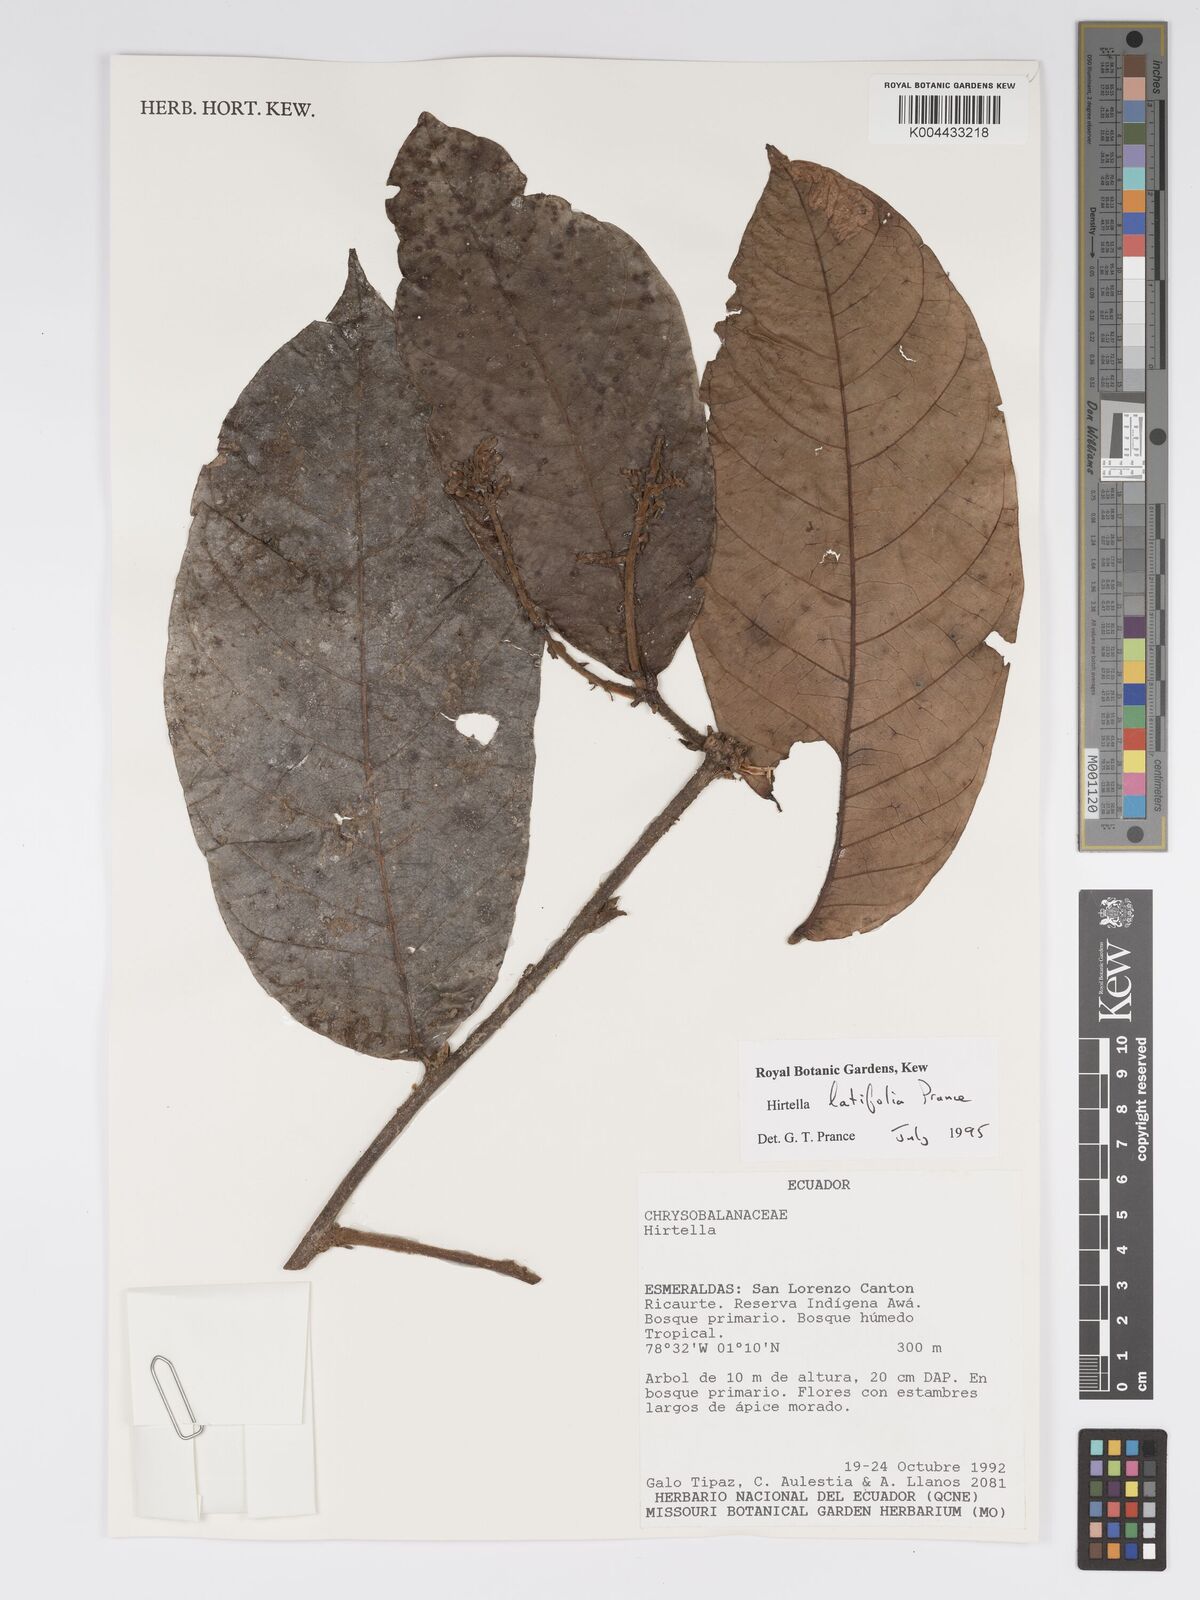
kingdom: Plantae
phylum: Tracheophyta
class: Magnoliopsida
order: Malpighiales
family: Chrysobalanaceae
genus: Hirtella
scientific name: Hirtella latifolia
